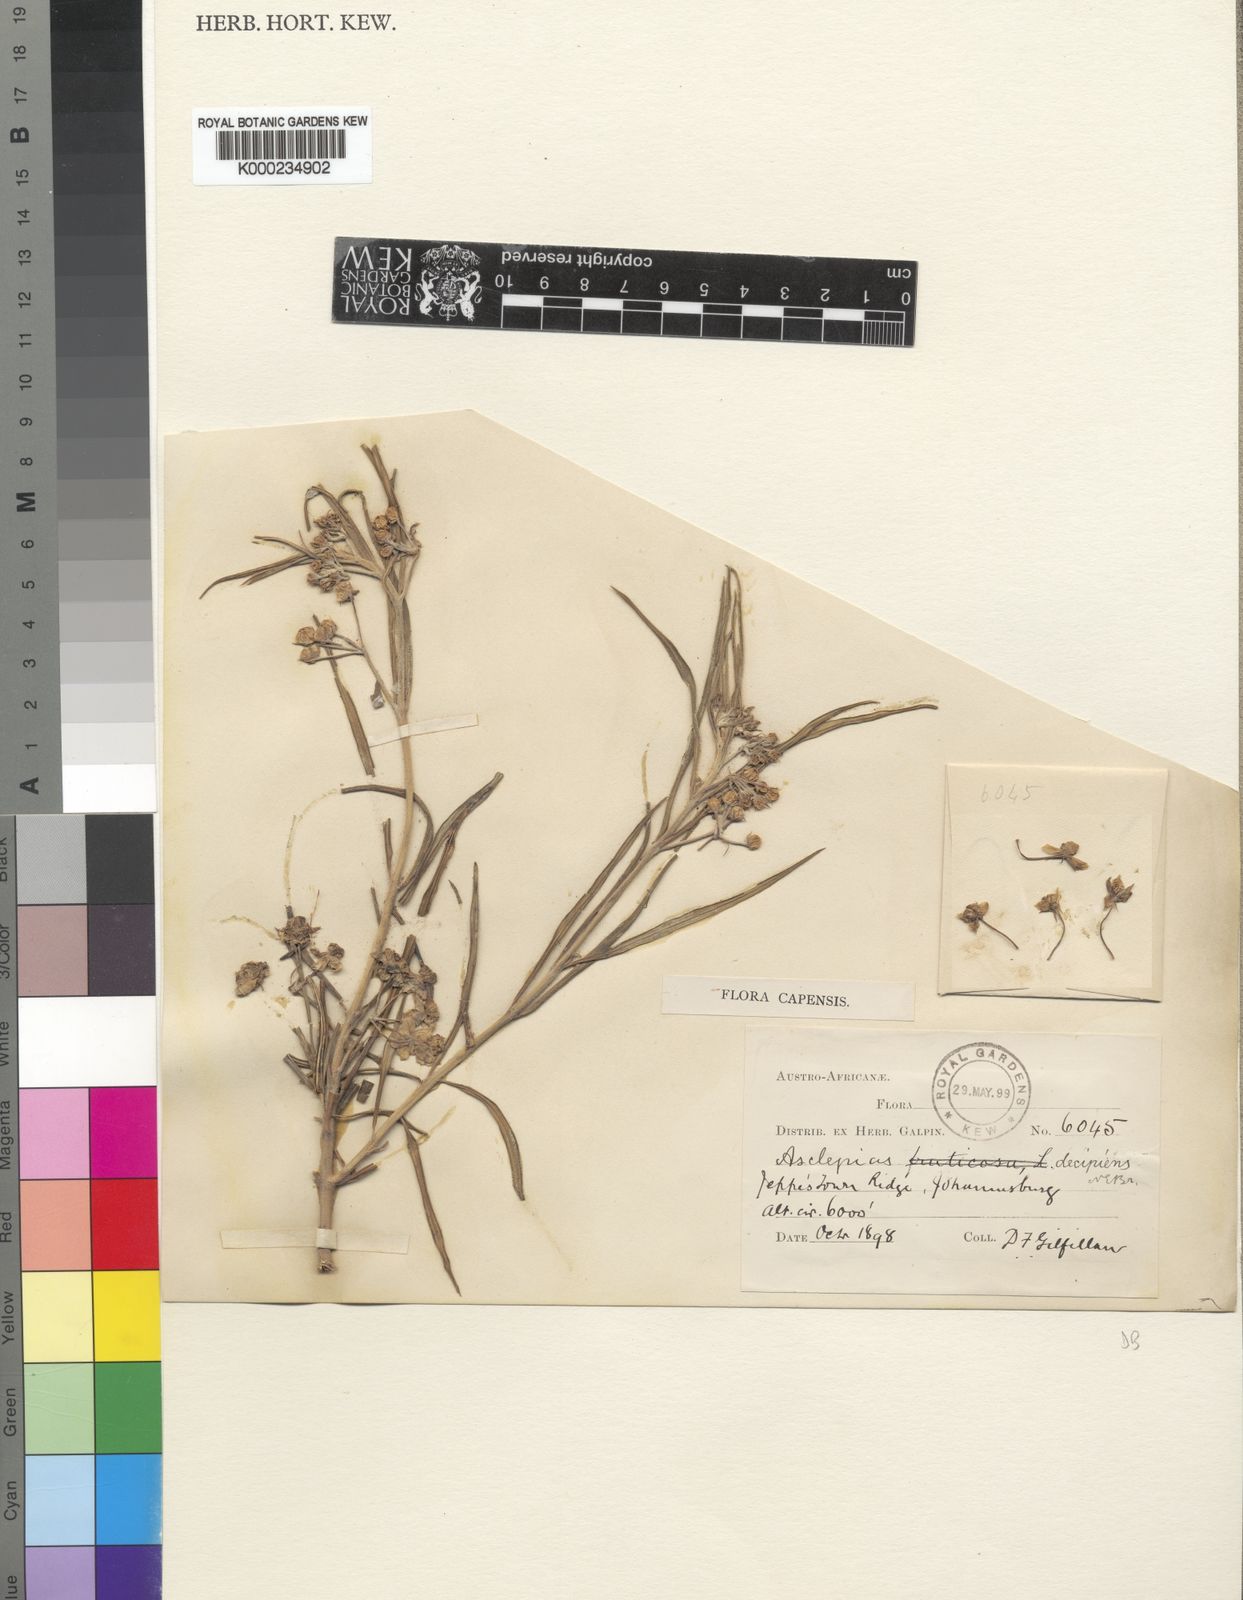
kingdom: Plantae
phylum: Tracheophyta
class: Magnoliopsida
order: Gentianales
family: Apocynaceae
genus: Gomphocarpus
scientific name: Gomphocarpus fruticosus
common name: Milkweed
